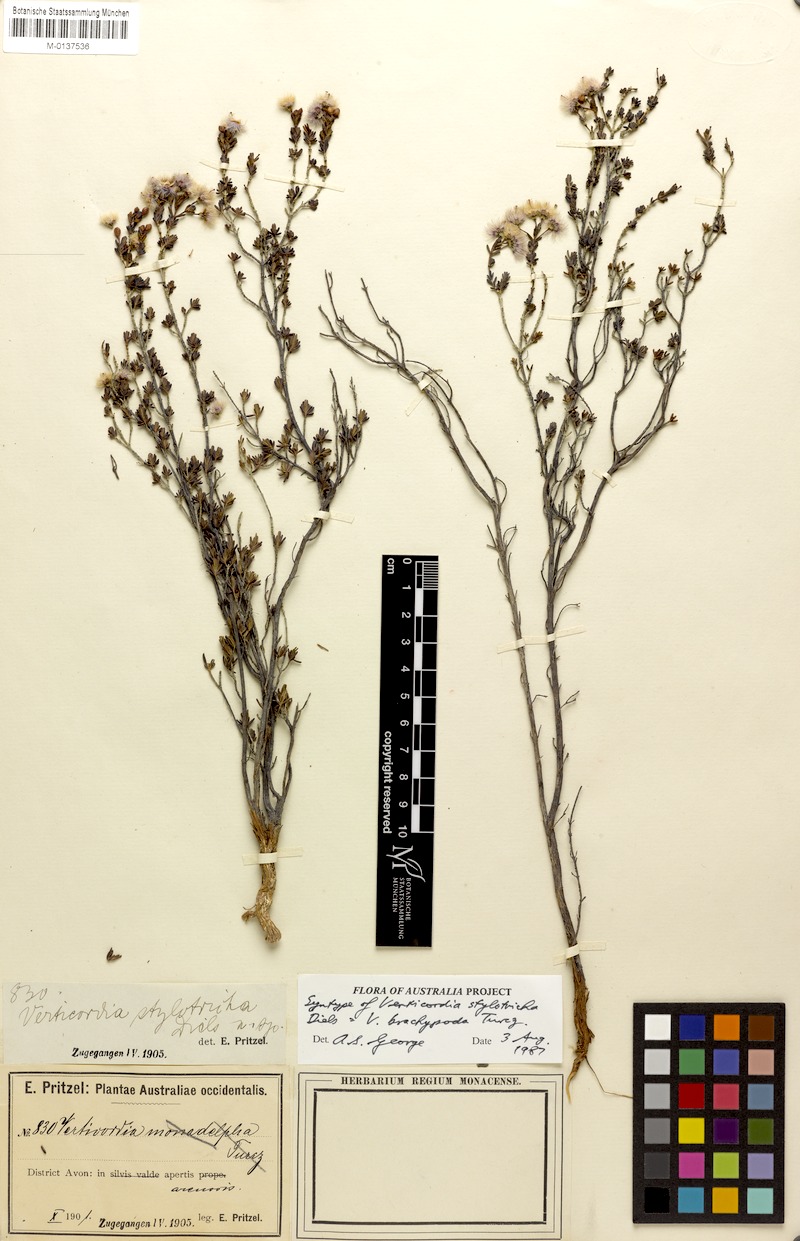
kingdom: Plantae
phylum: Tracheophyta
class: Magnoliopsida
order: Myrtales
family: Myrtaceae
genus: Verticordia
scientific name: Verticordia brachypoda
